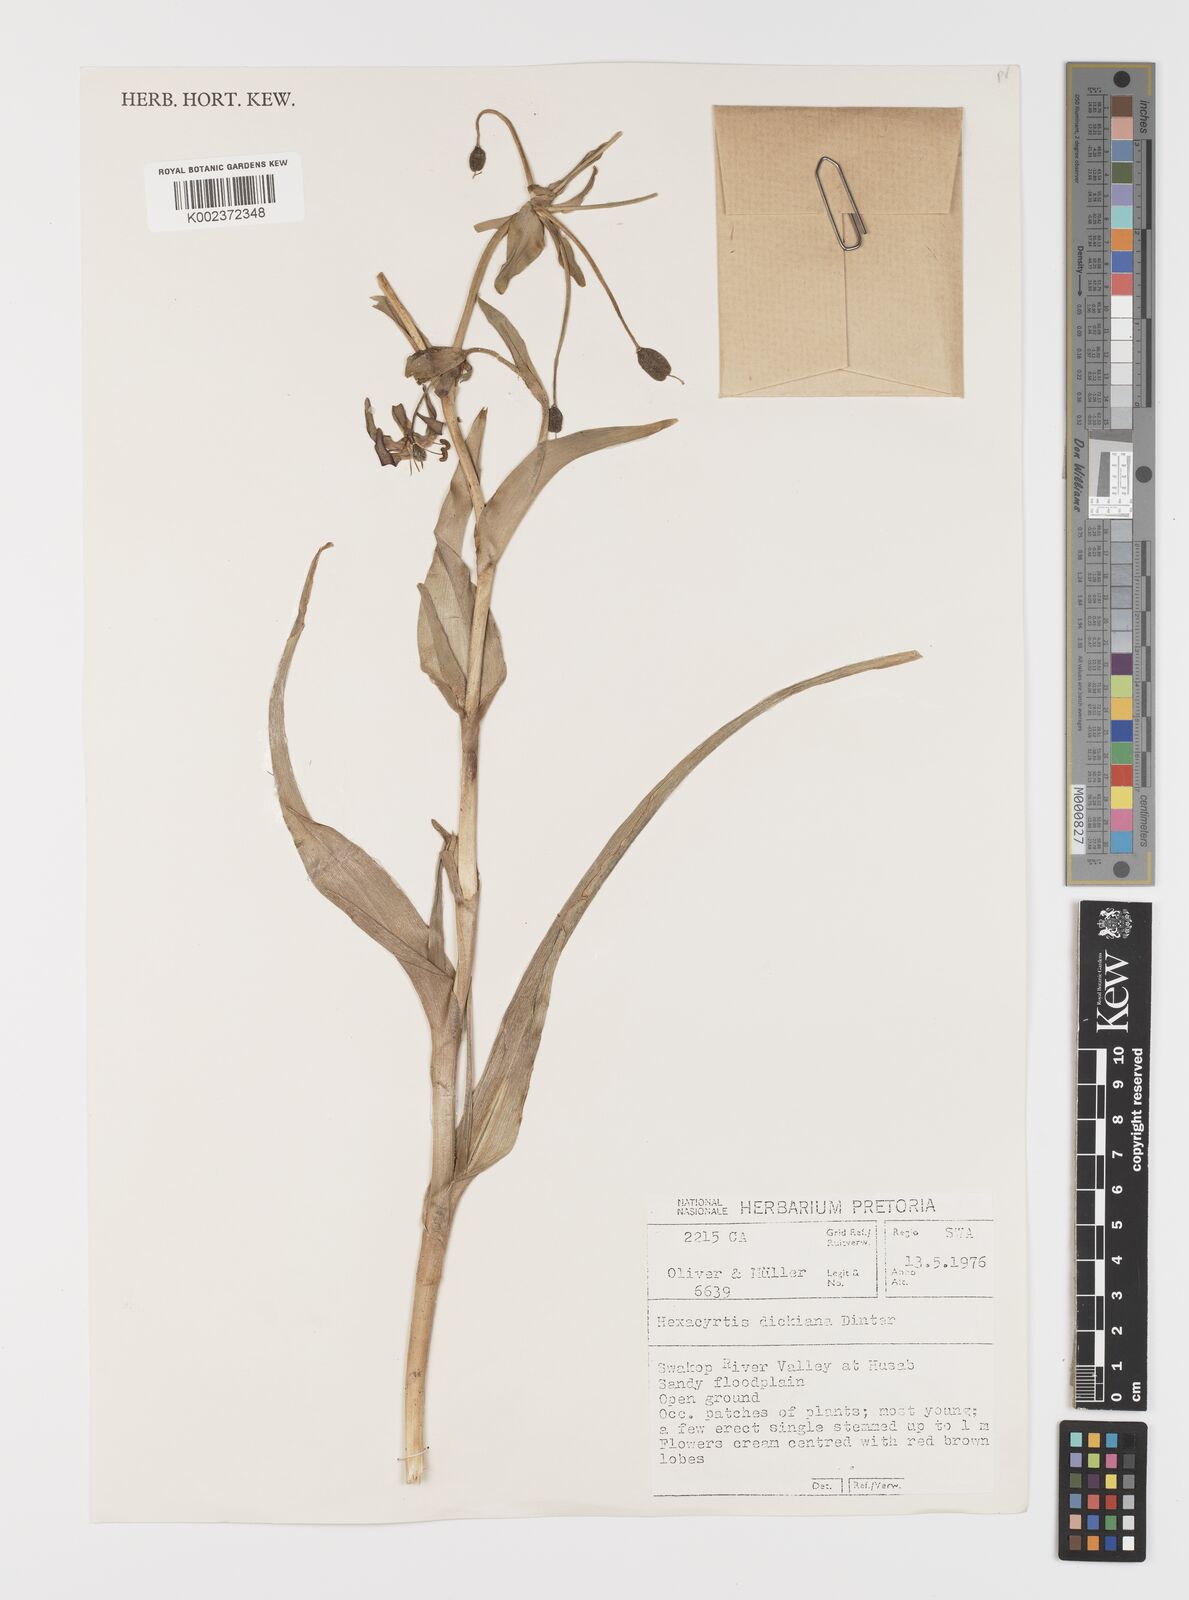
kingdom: Plantae
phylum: Tracheophyta
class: Liliopsida
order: Liliales
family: Colchicaceae
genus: Hexacyrtis
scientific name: Hexacyrtis dickiana
